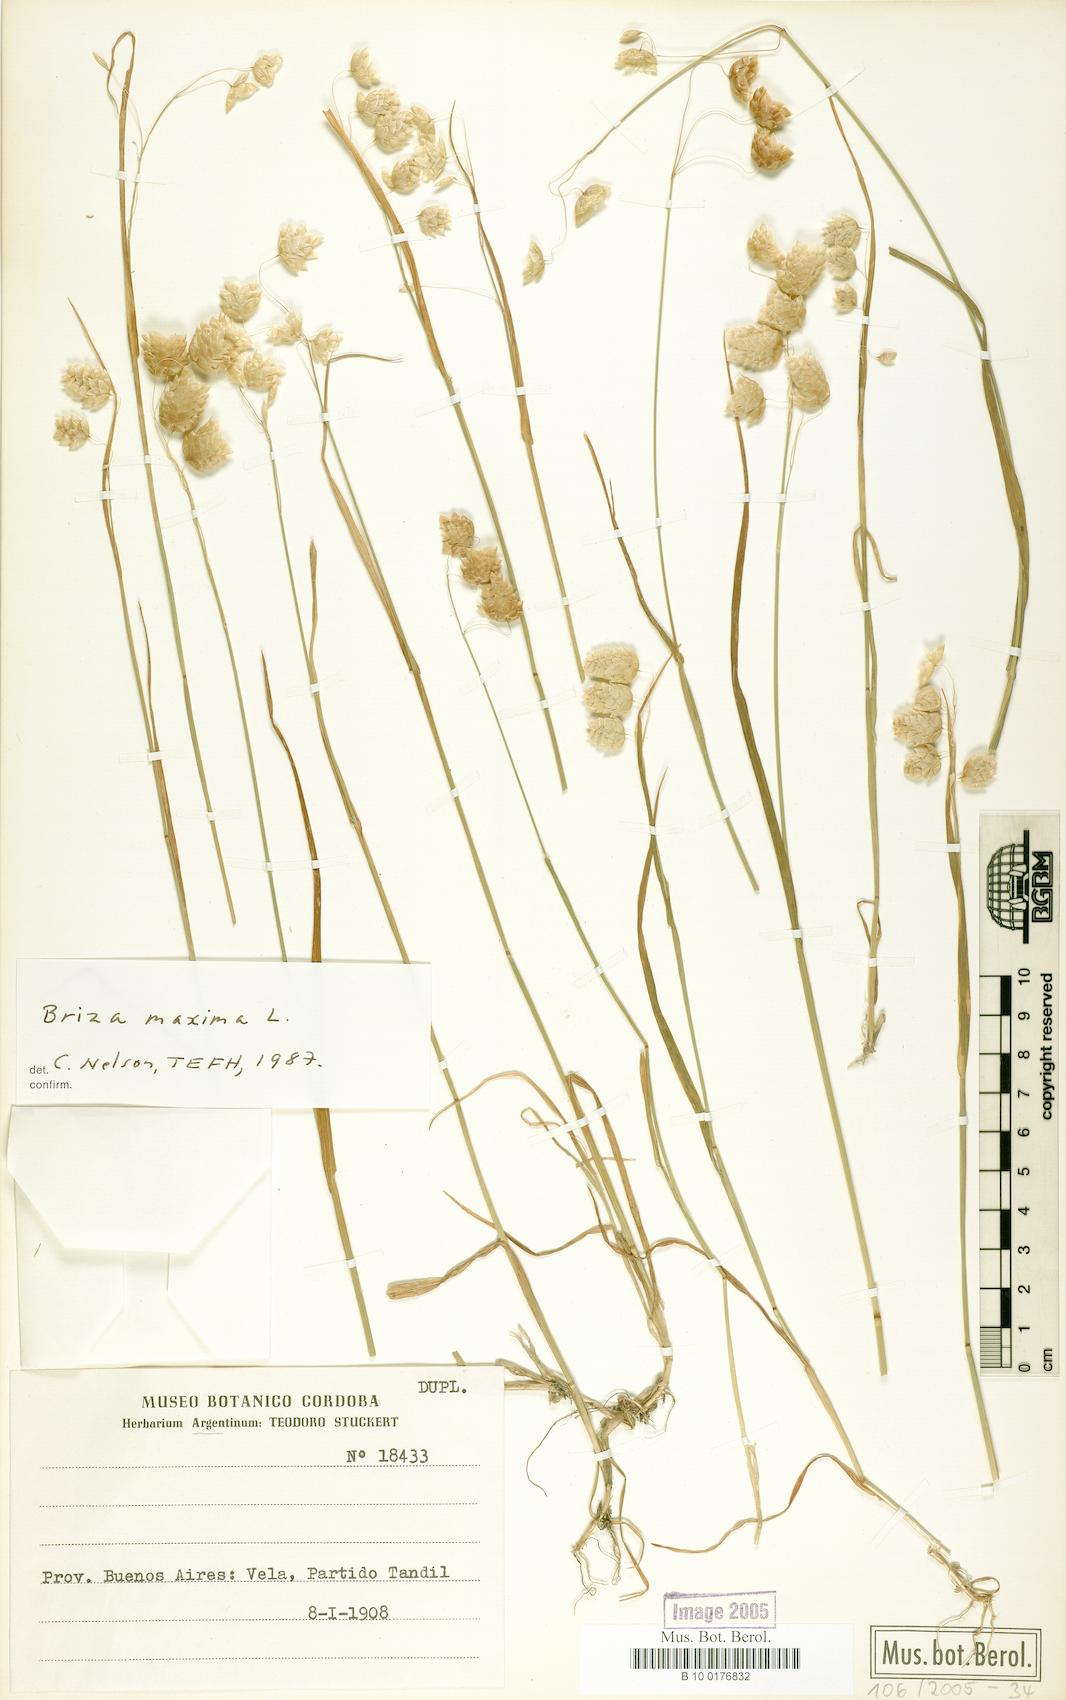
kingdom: Plantae
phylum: Tracheophyta
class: Liliopsida
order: Poales
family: Poaceae
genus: Briza
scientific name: Briza maxima
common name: Big quakinggrass
